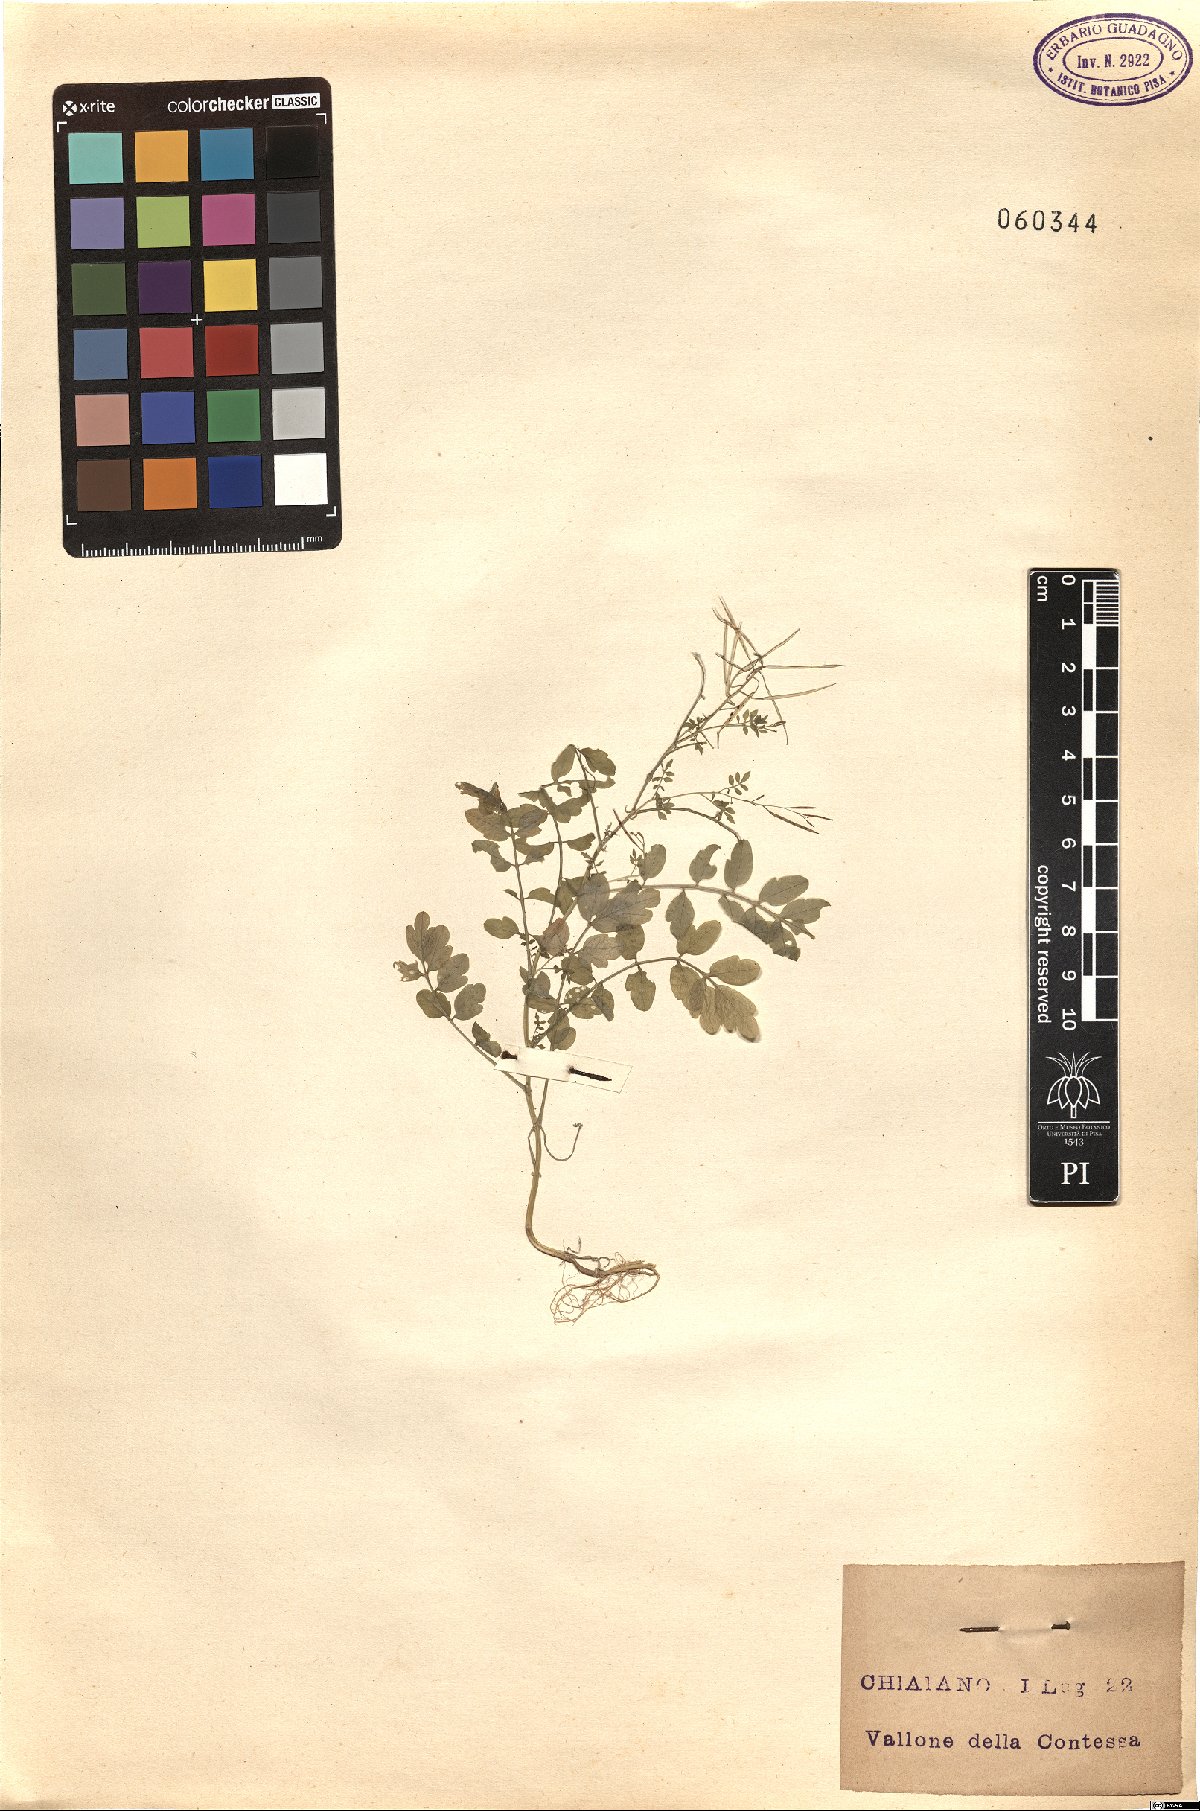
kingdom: Plantae
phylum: Tracheophyta
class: Magnoliopsida
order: Brassicales
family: Brassicaceae
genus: Cardamine
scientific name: Cardamine
